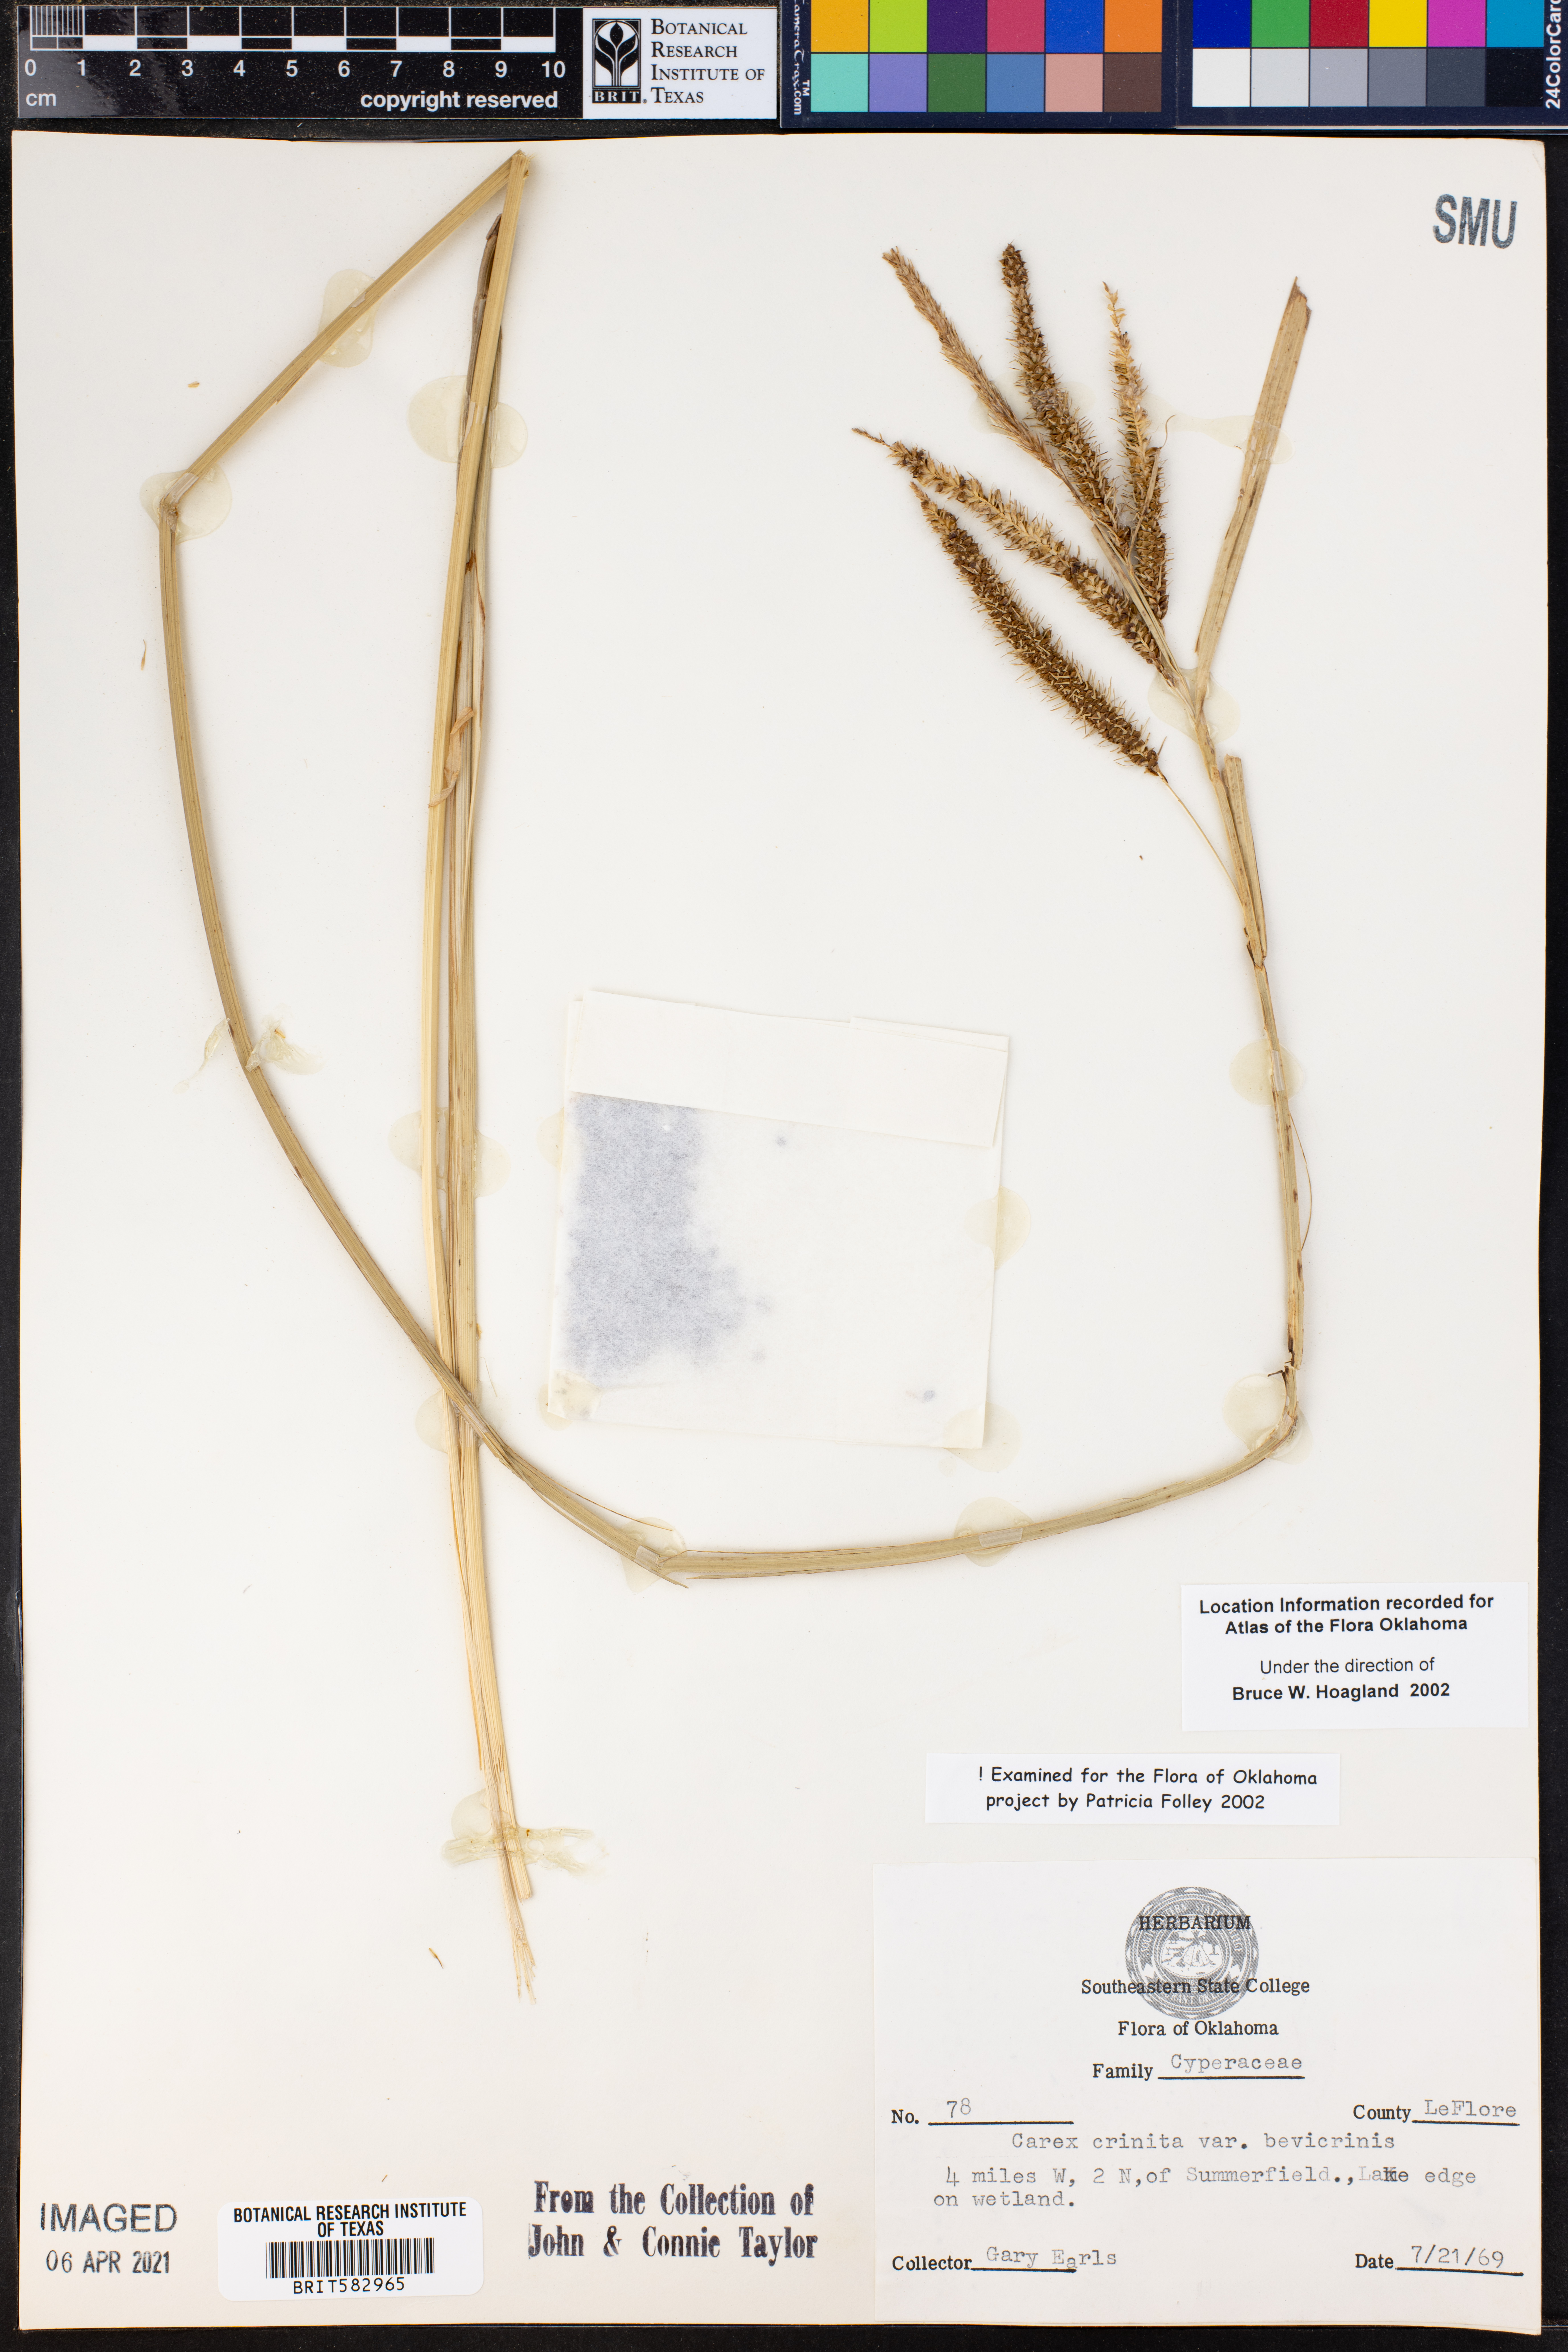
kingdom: Plantae
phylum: Tracheophyta
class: Liliopsida
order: Poales
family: Cyperaceae
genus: Carex
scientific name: Carex crinita
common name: Fringed sedge
